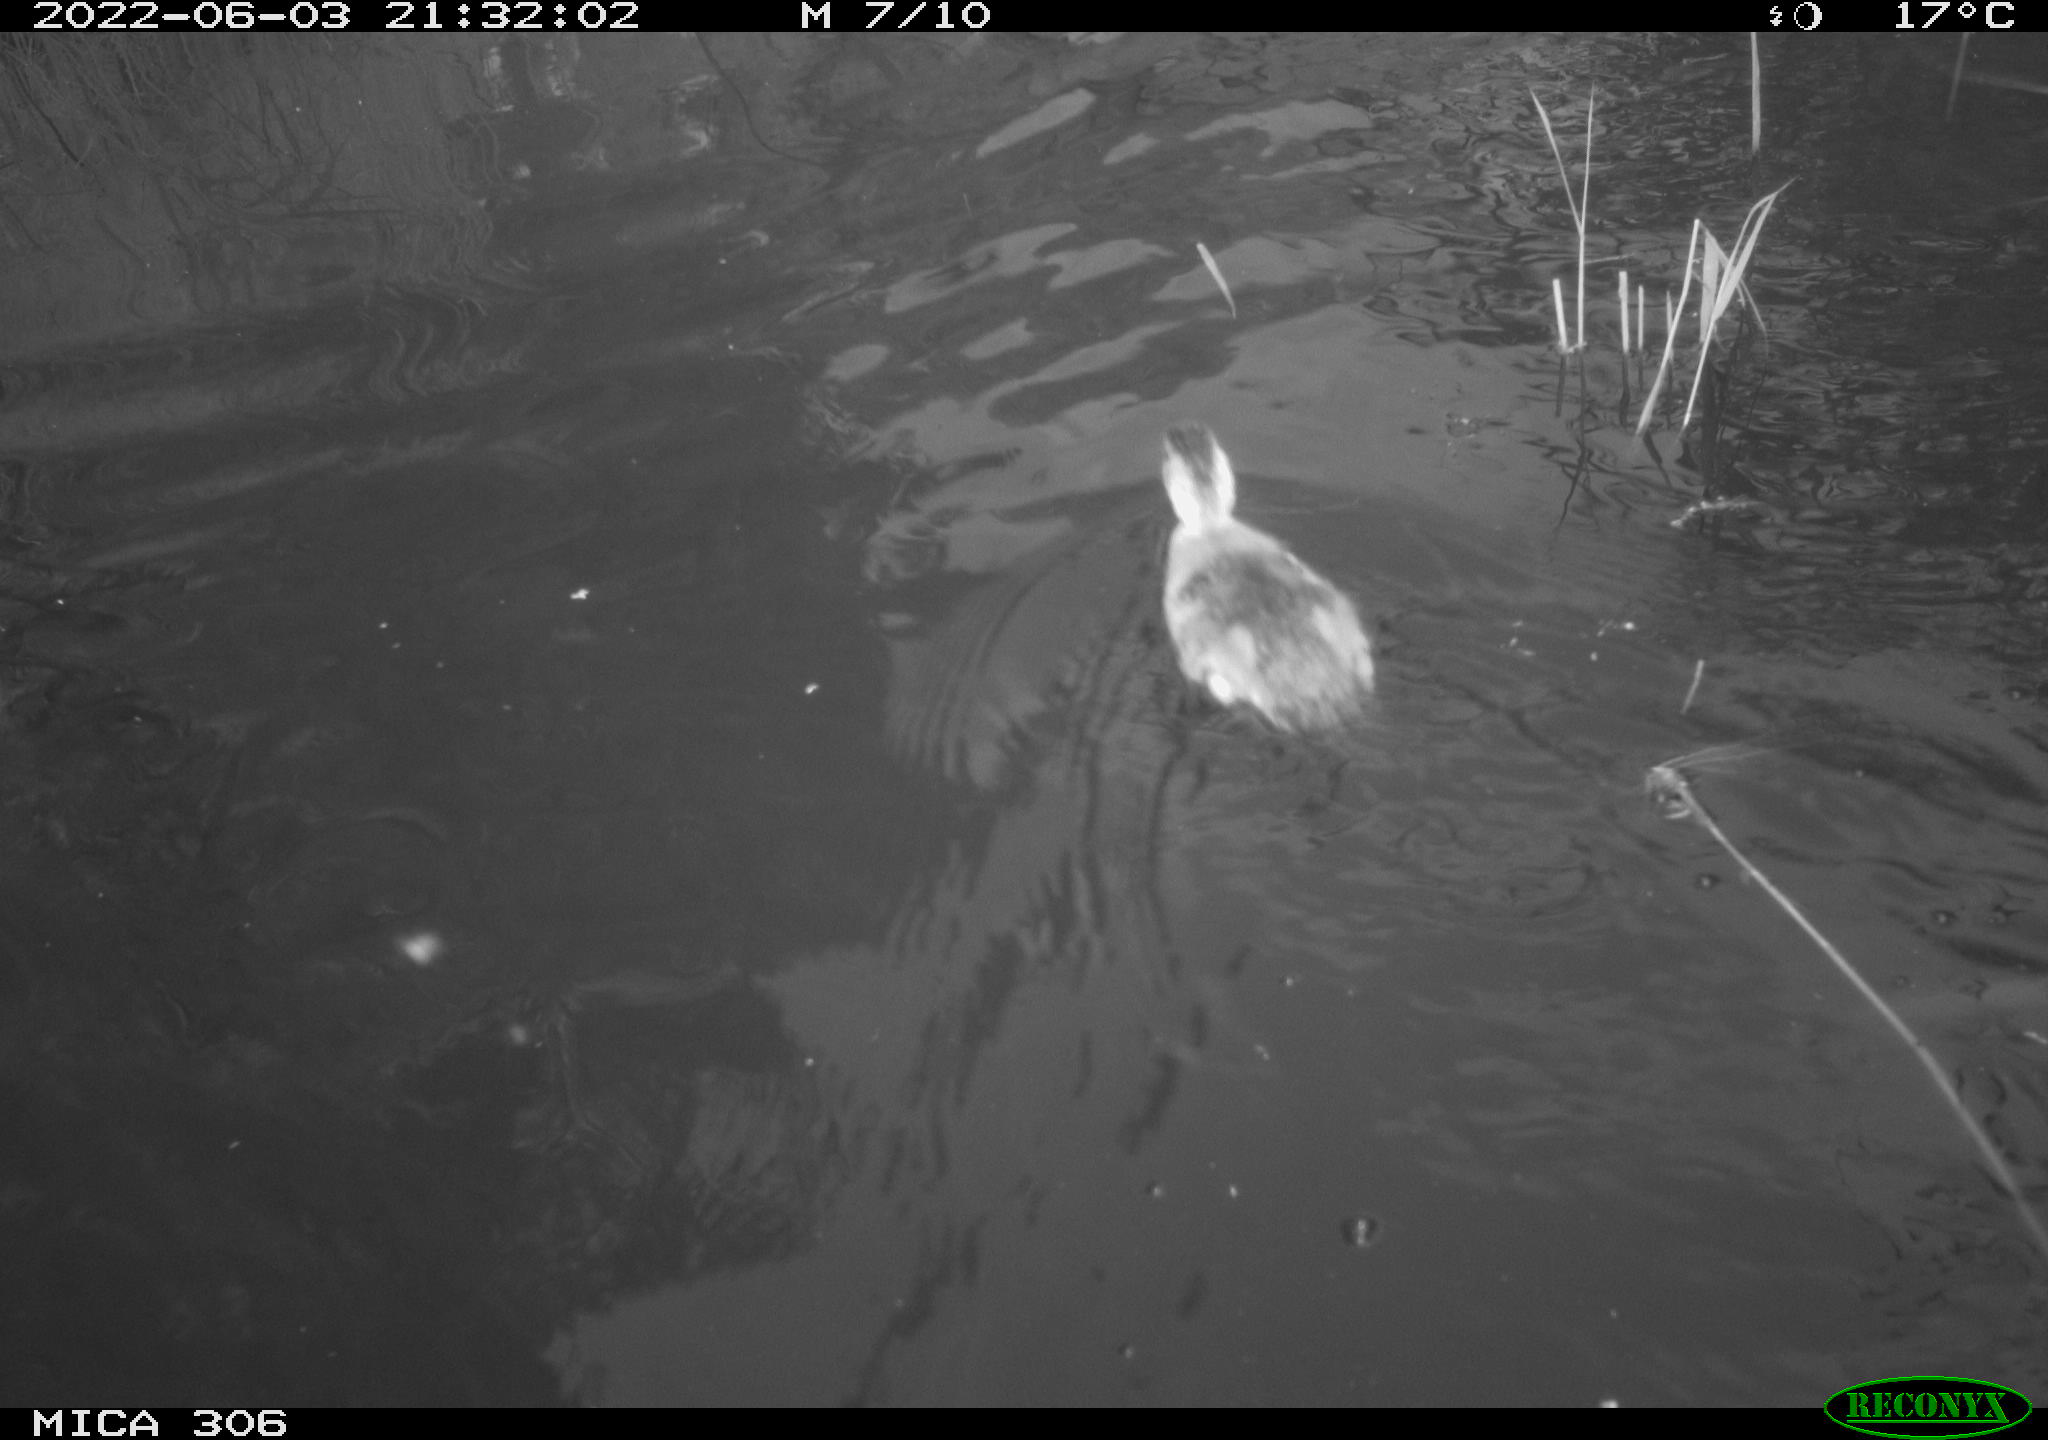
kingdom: Animalia
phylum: Chordata
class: Aves
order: Anseriformes
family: Anatidae
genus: Anas
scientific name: Anas platyrhynchos
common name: Mallard
